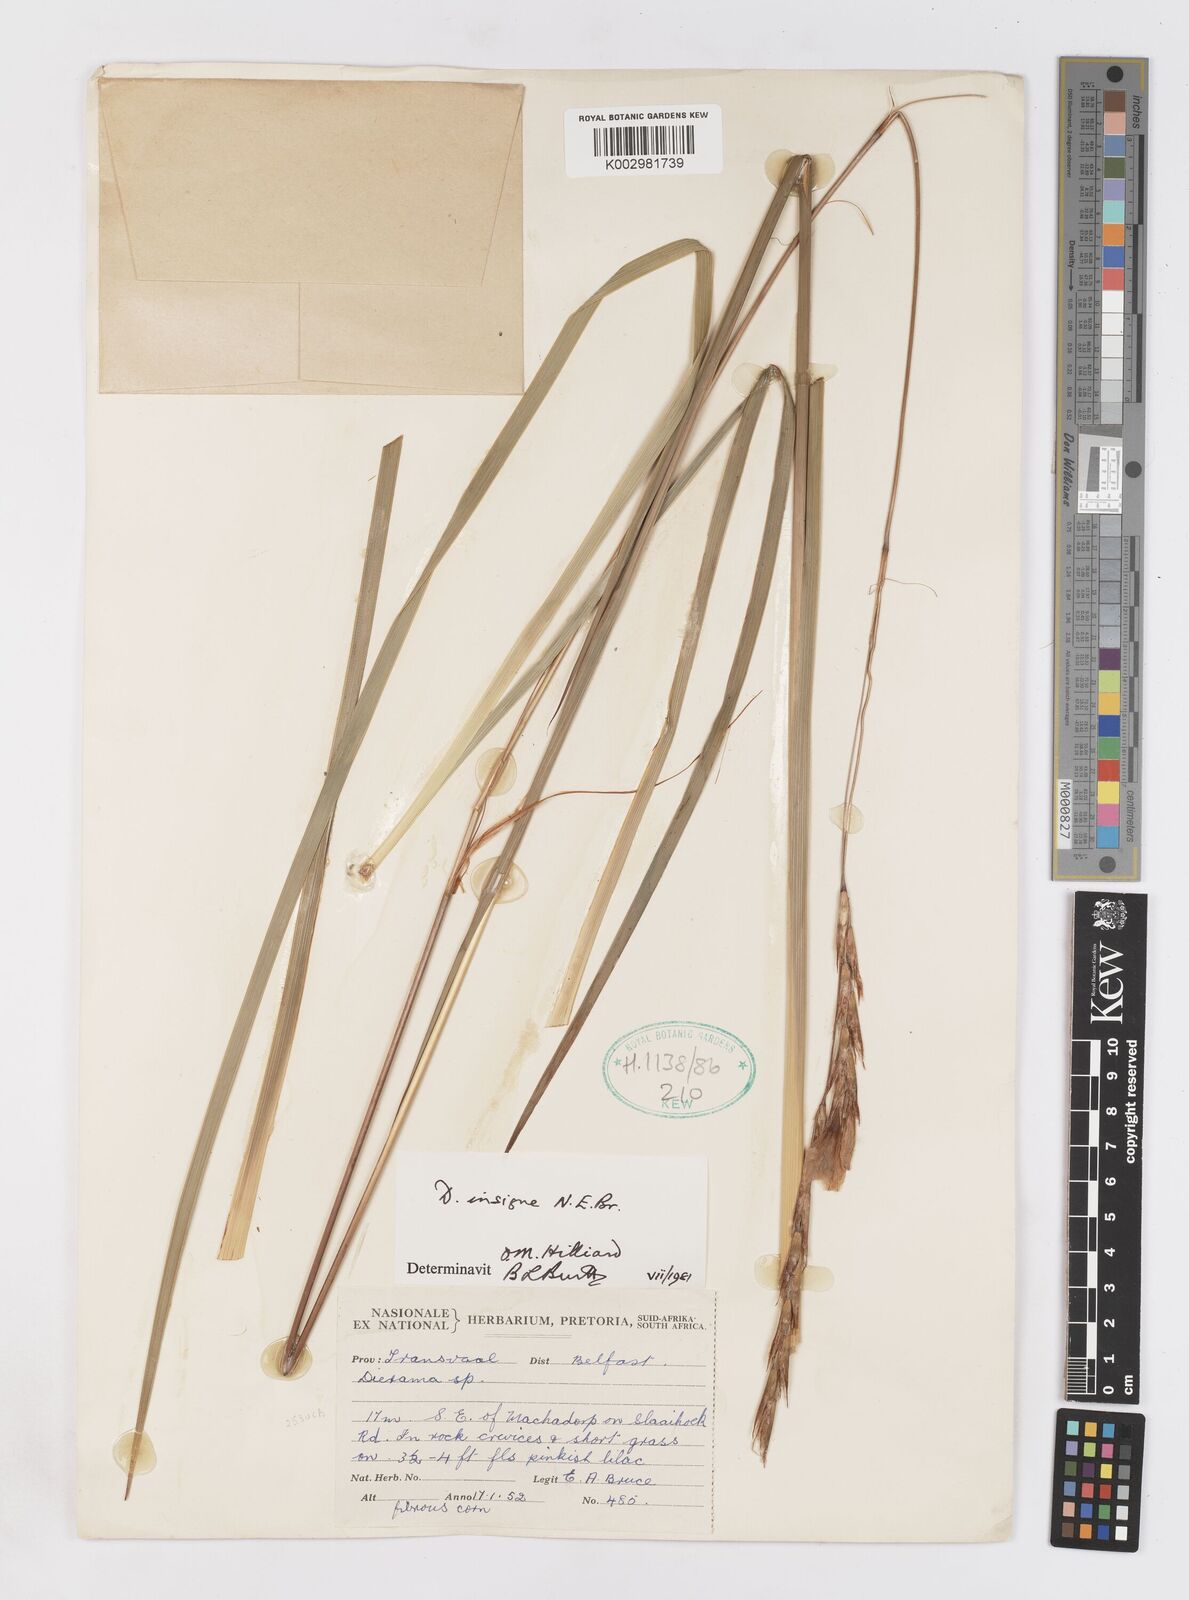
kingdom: Plantae
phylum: Tracheophyta
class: Liliopsida
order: Asparagales
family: Iridaceae
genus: Dierama
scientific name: Dierama insigne
